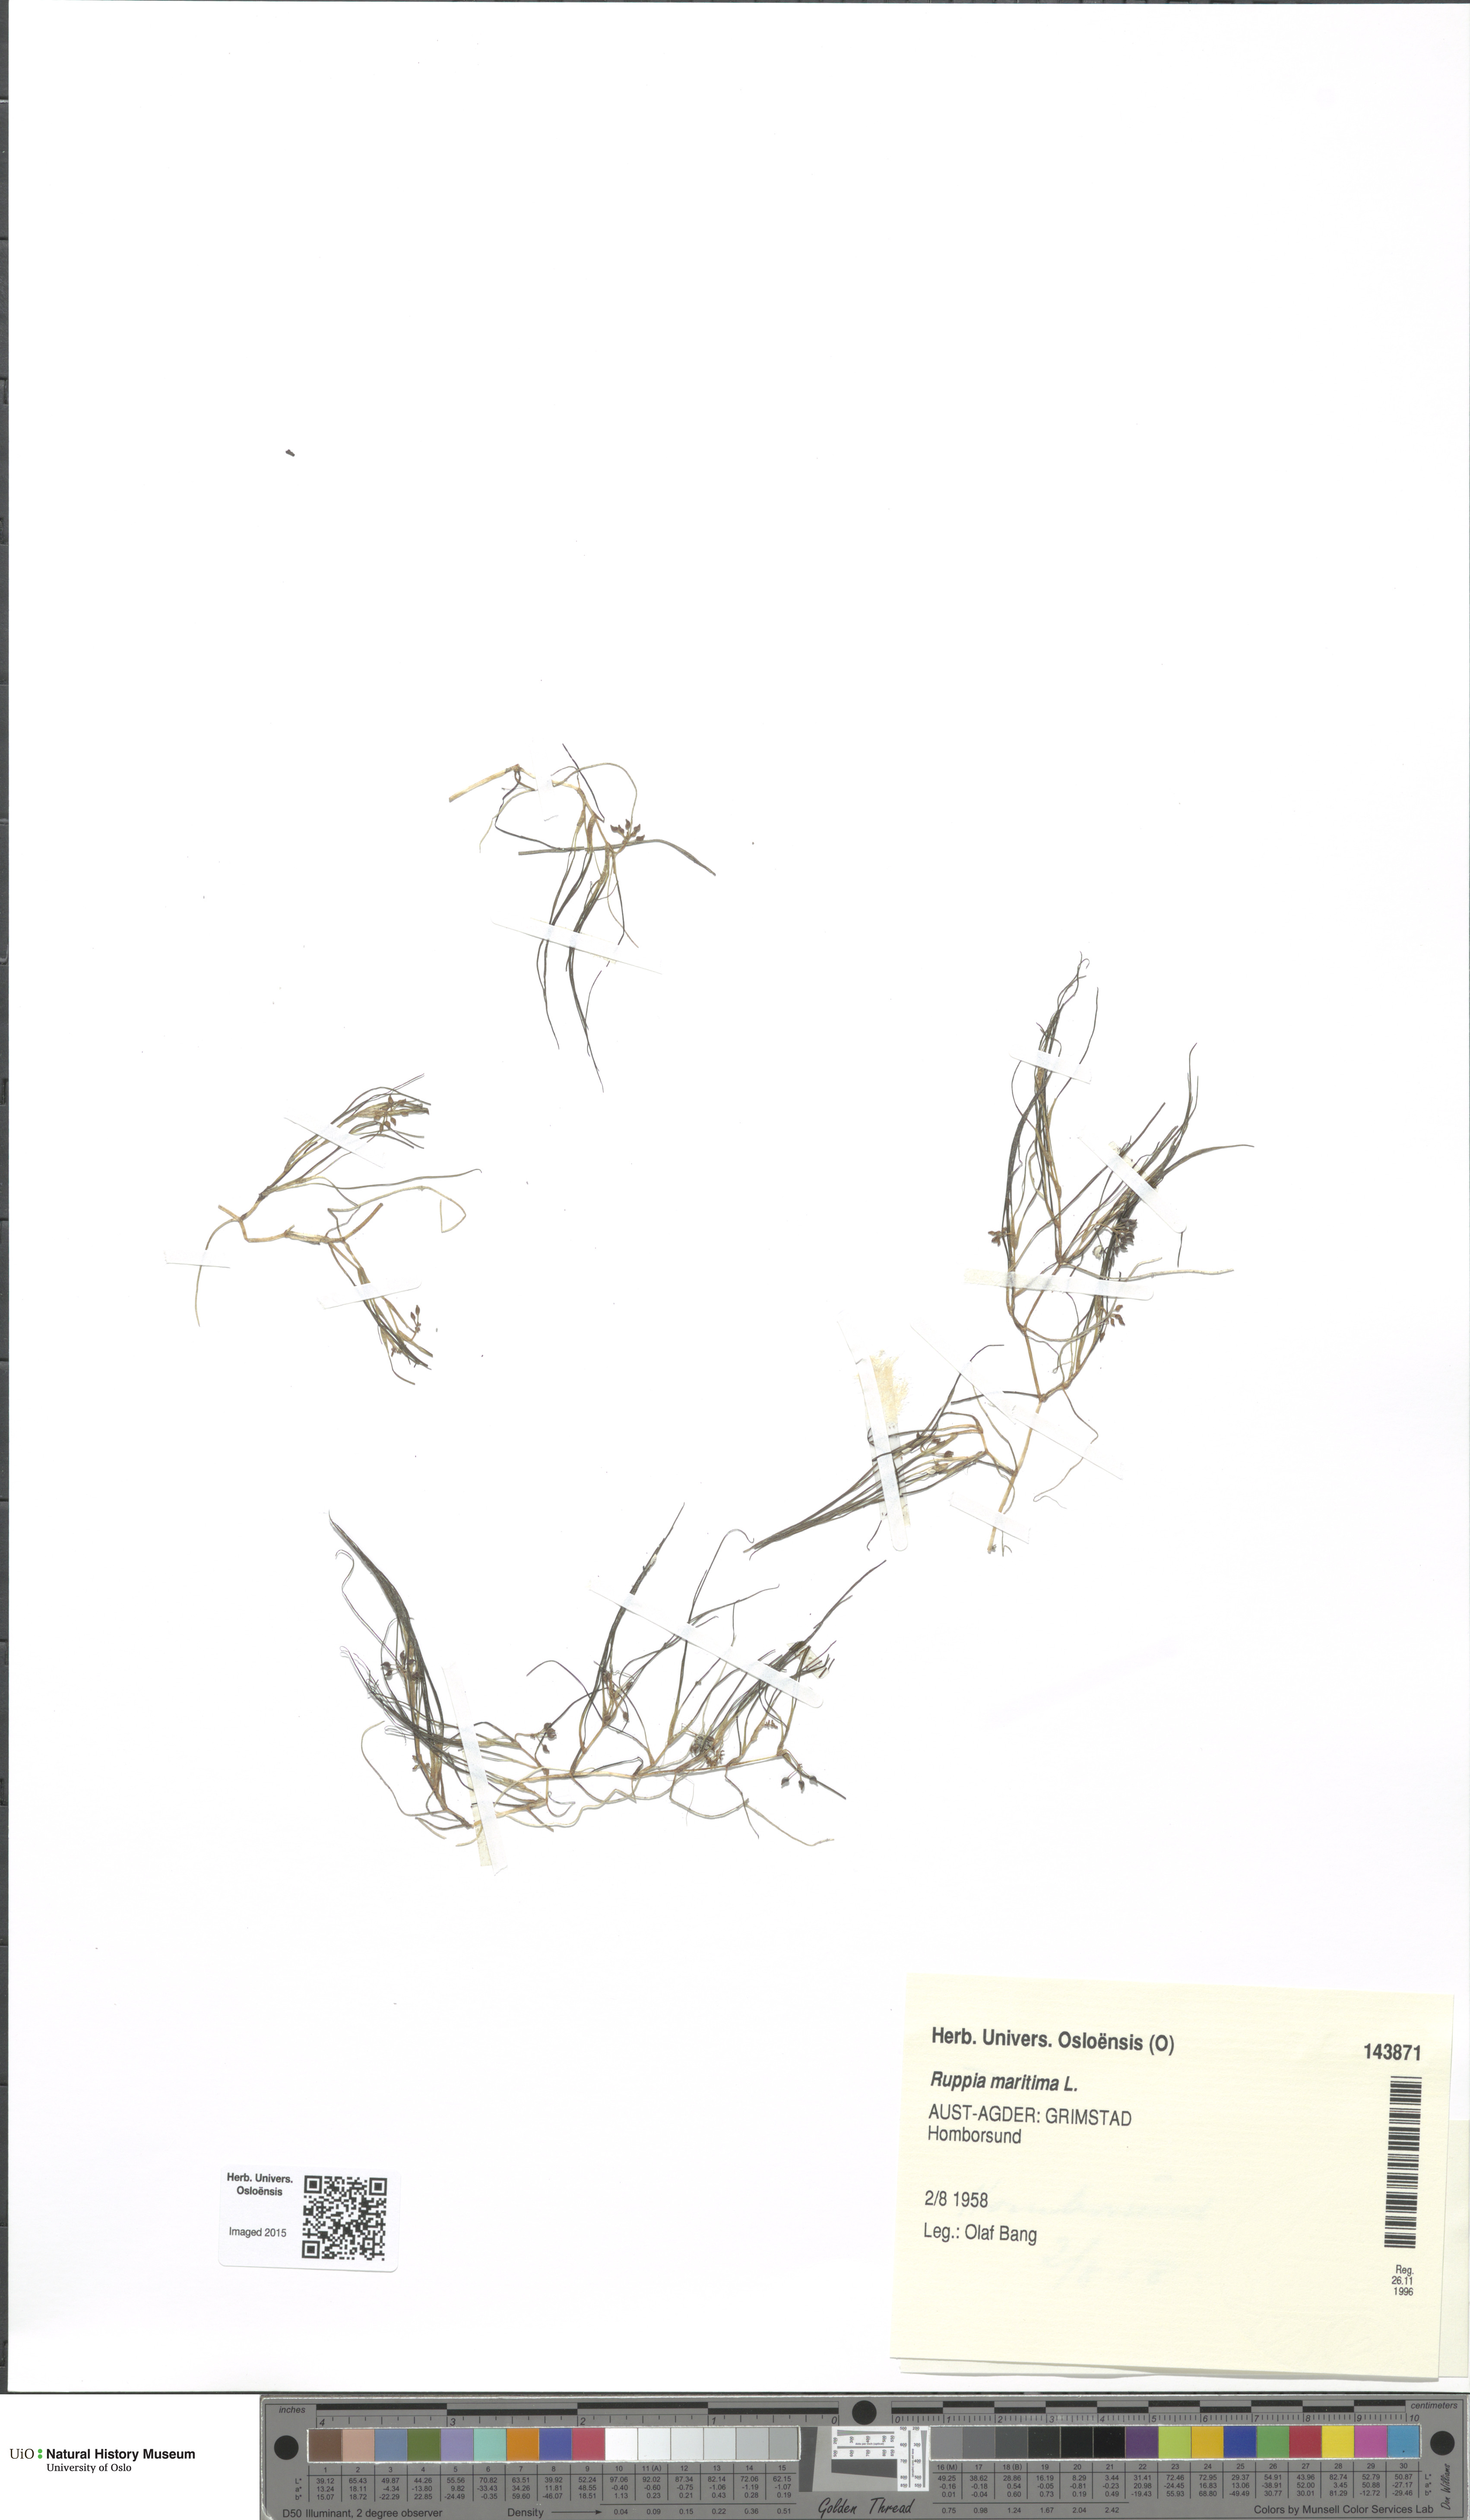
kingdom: Plantae
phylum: Tracheophyta
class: Liliopsida
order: Alismatales
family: Ruppiaceae
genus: Ruppia
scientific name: Ruppia maritima
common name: Beaked tasselweed
